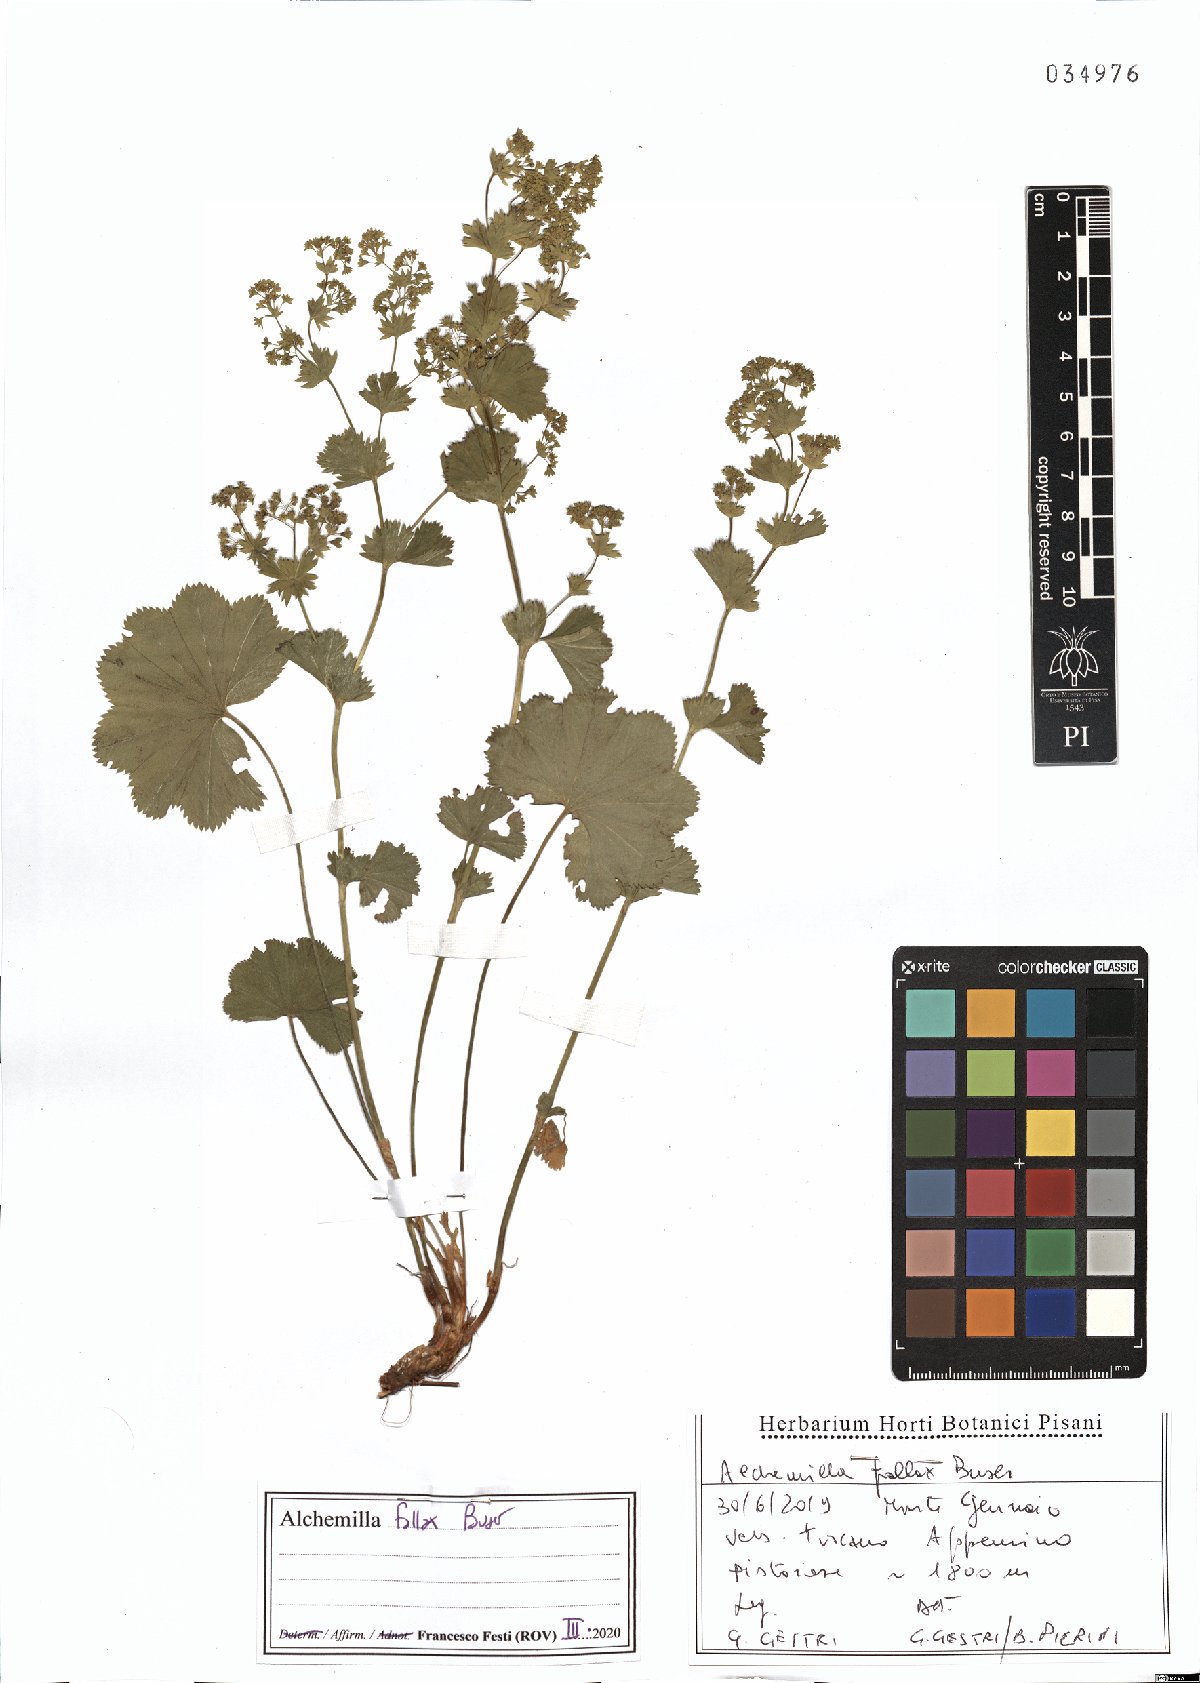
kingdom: Plantae
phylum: Tracheophyta
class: Magnoliopsida
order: Rosales
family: Rosaceae
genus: Alchemilla
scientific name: Alchemilla fallax
